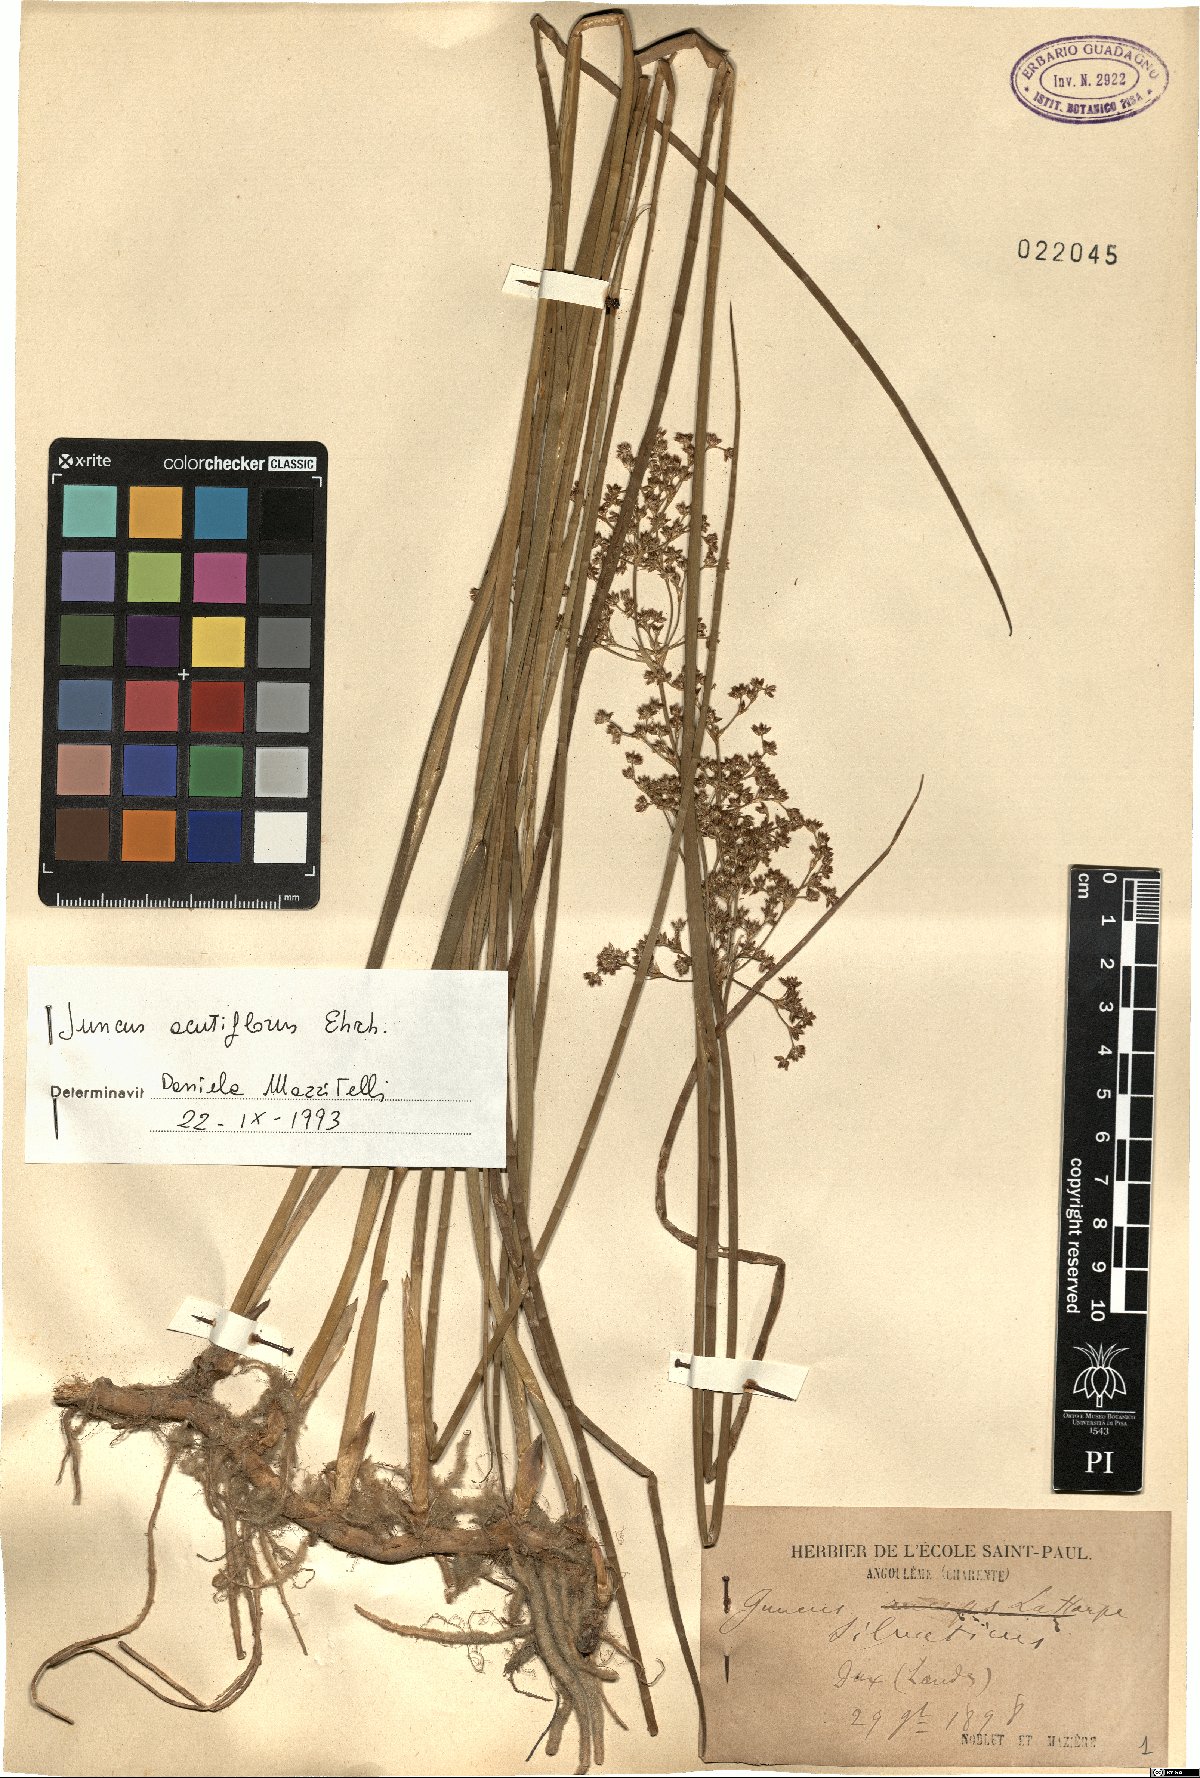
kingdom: Plantae
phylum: Tracheophyta
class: Liliopsida
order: Poales
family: Juncaceae
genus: Juncus
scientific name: Juncus acutiflorus
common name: Sharp-flowered rush
